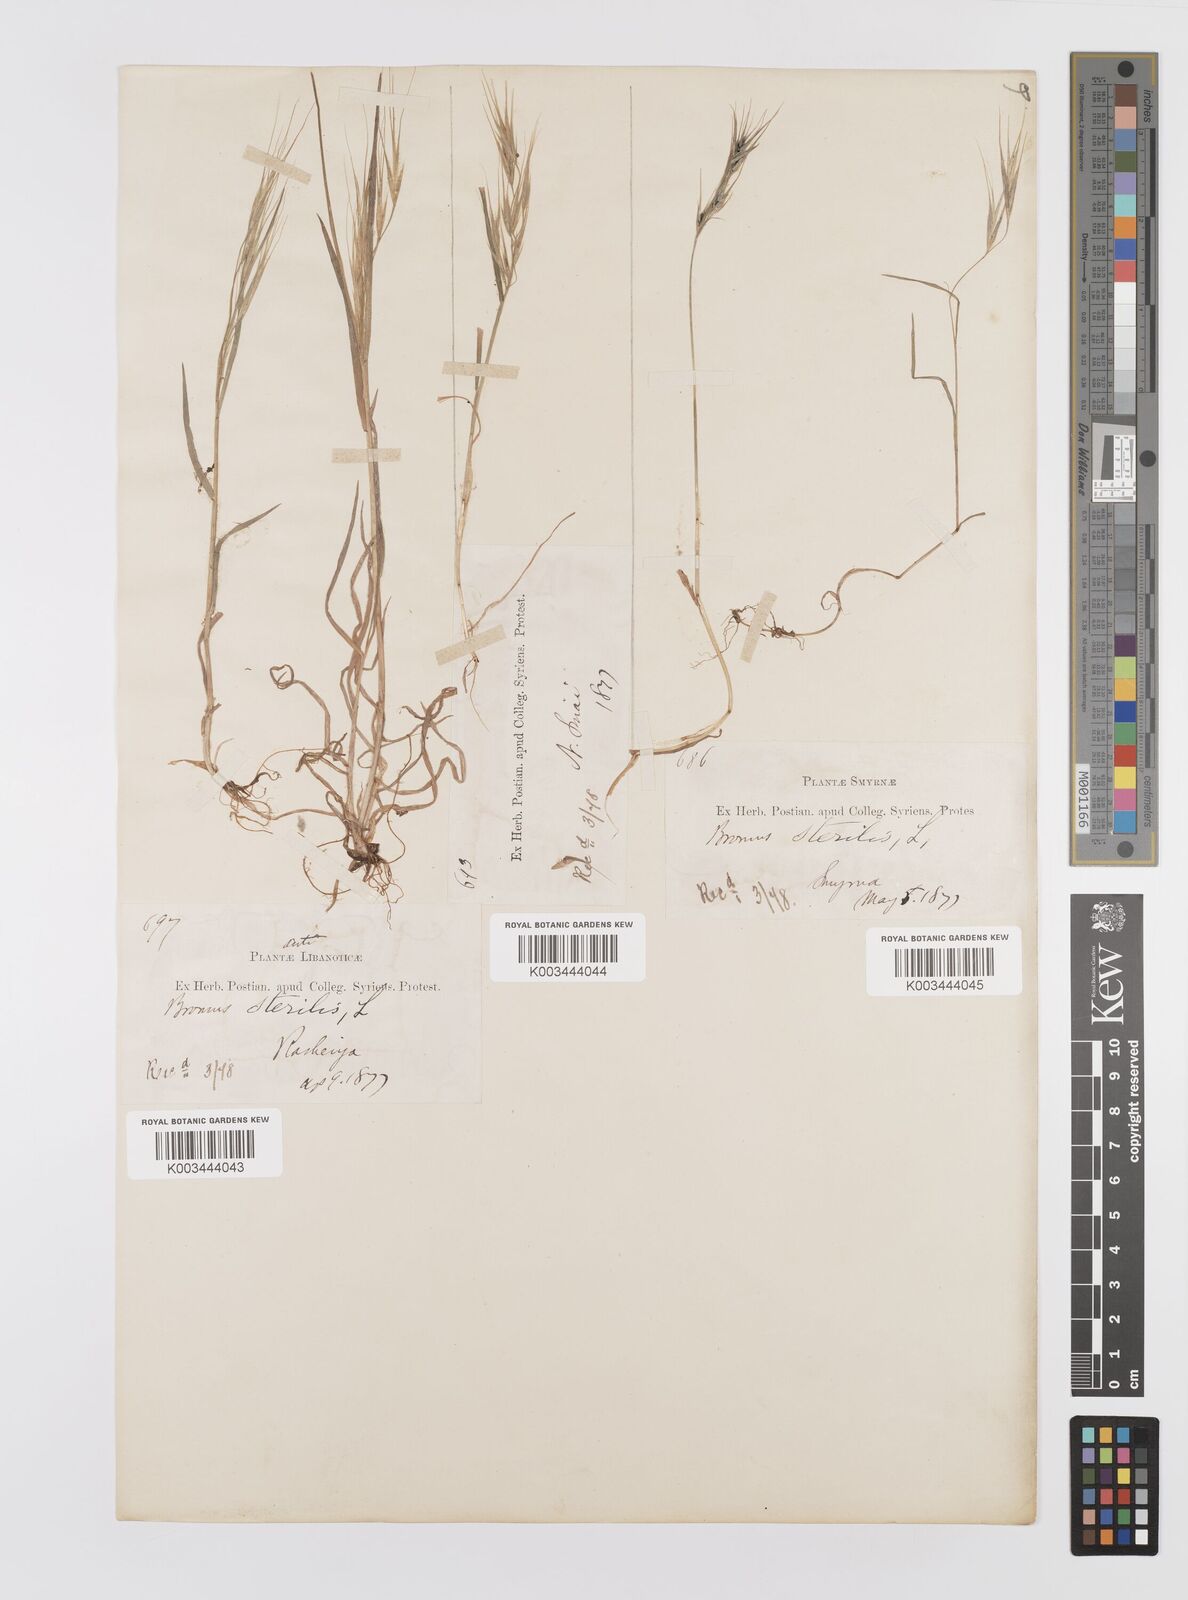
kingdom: Plantae
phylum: Tracheophyta
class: Liliopsida
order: Poales
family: Poaceae
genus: Bromus
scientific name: Bromus sterilis
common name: Poverty brome
